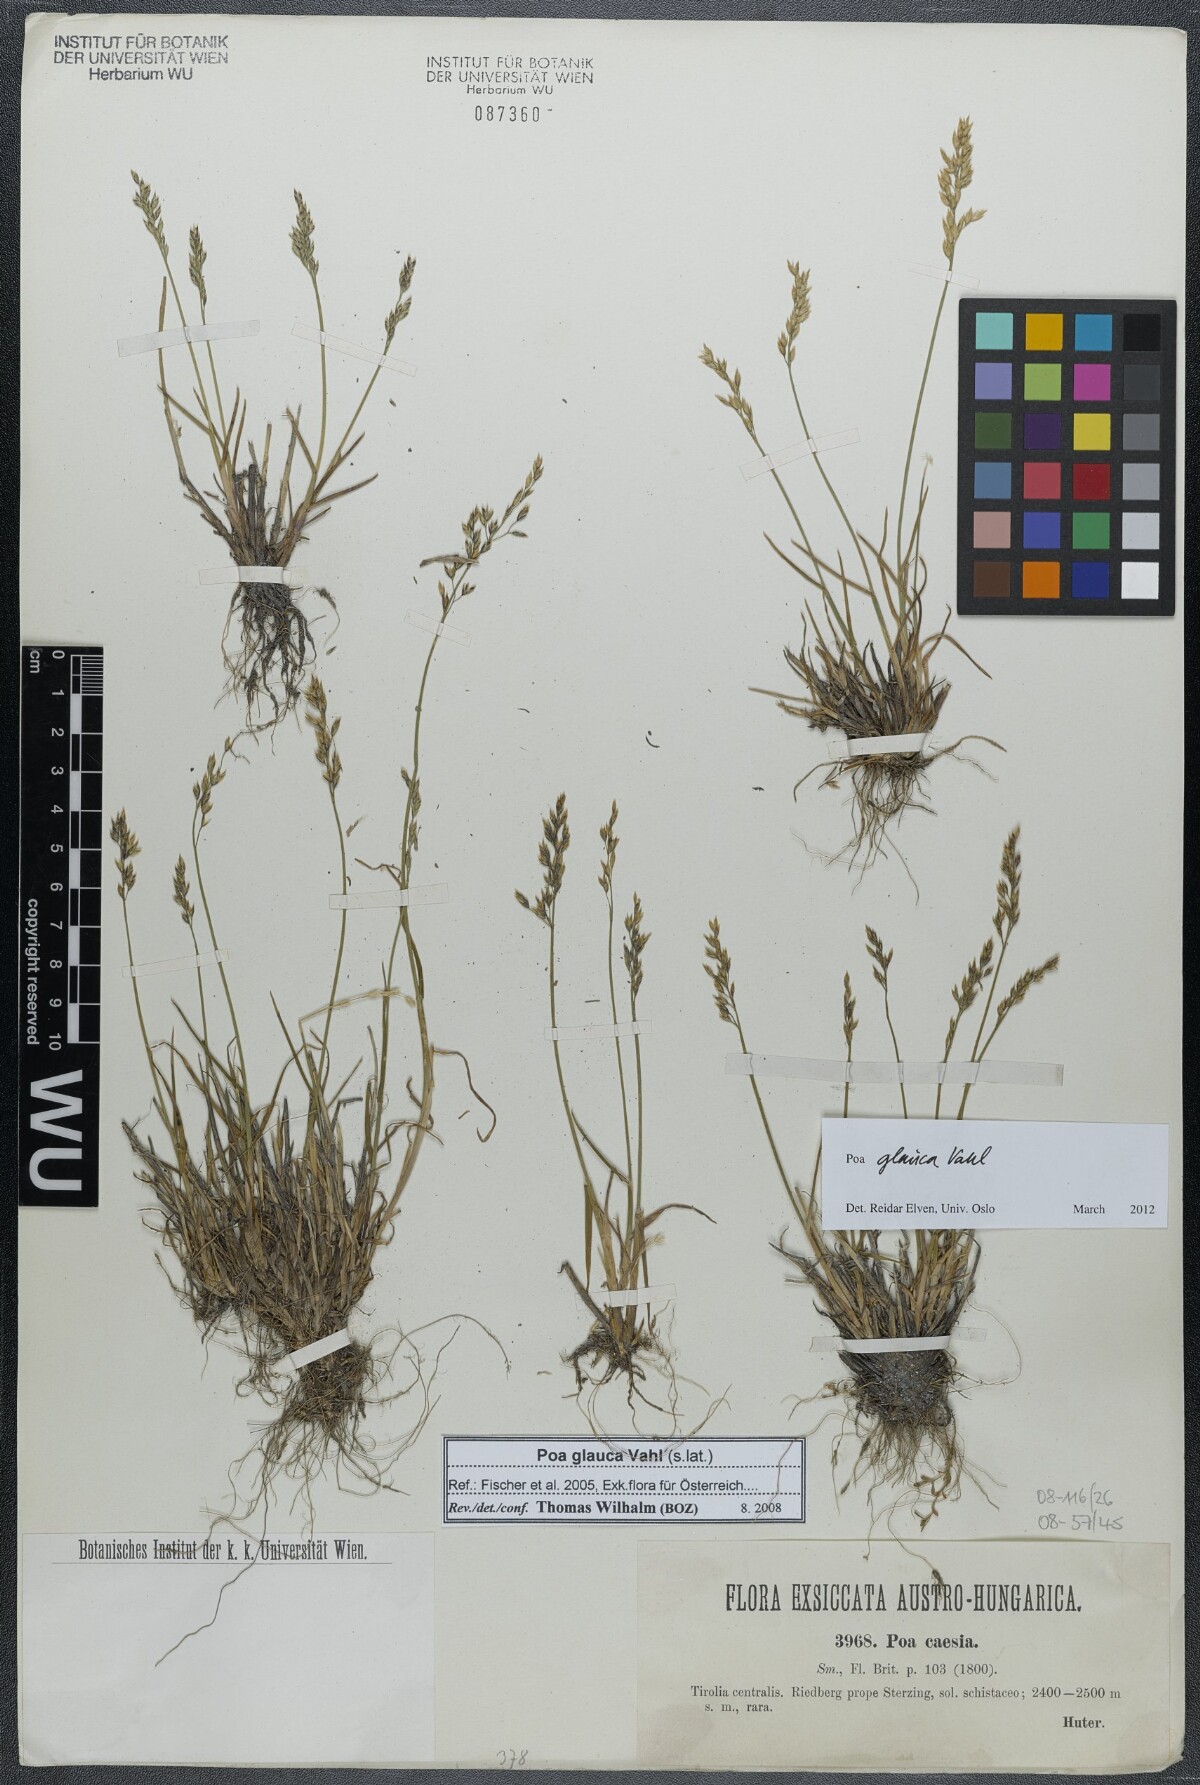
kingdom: Plantae
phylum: Tracheophyta
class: Liliopsida
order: Poales
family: Poaceae
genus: Poa
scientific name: Poa glauca
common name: Glaucous bluegrass
